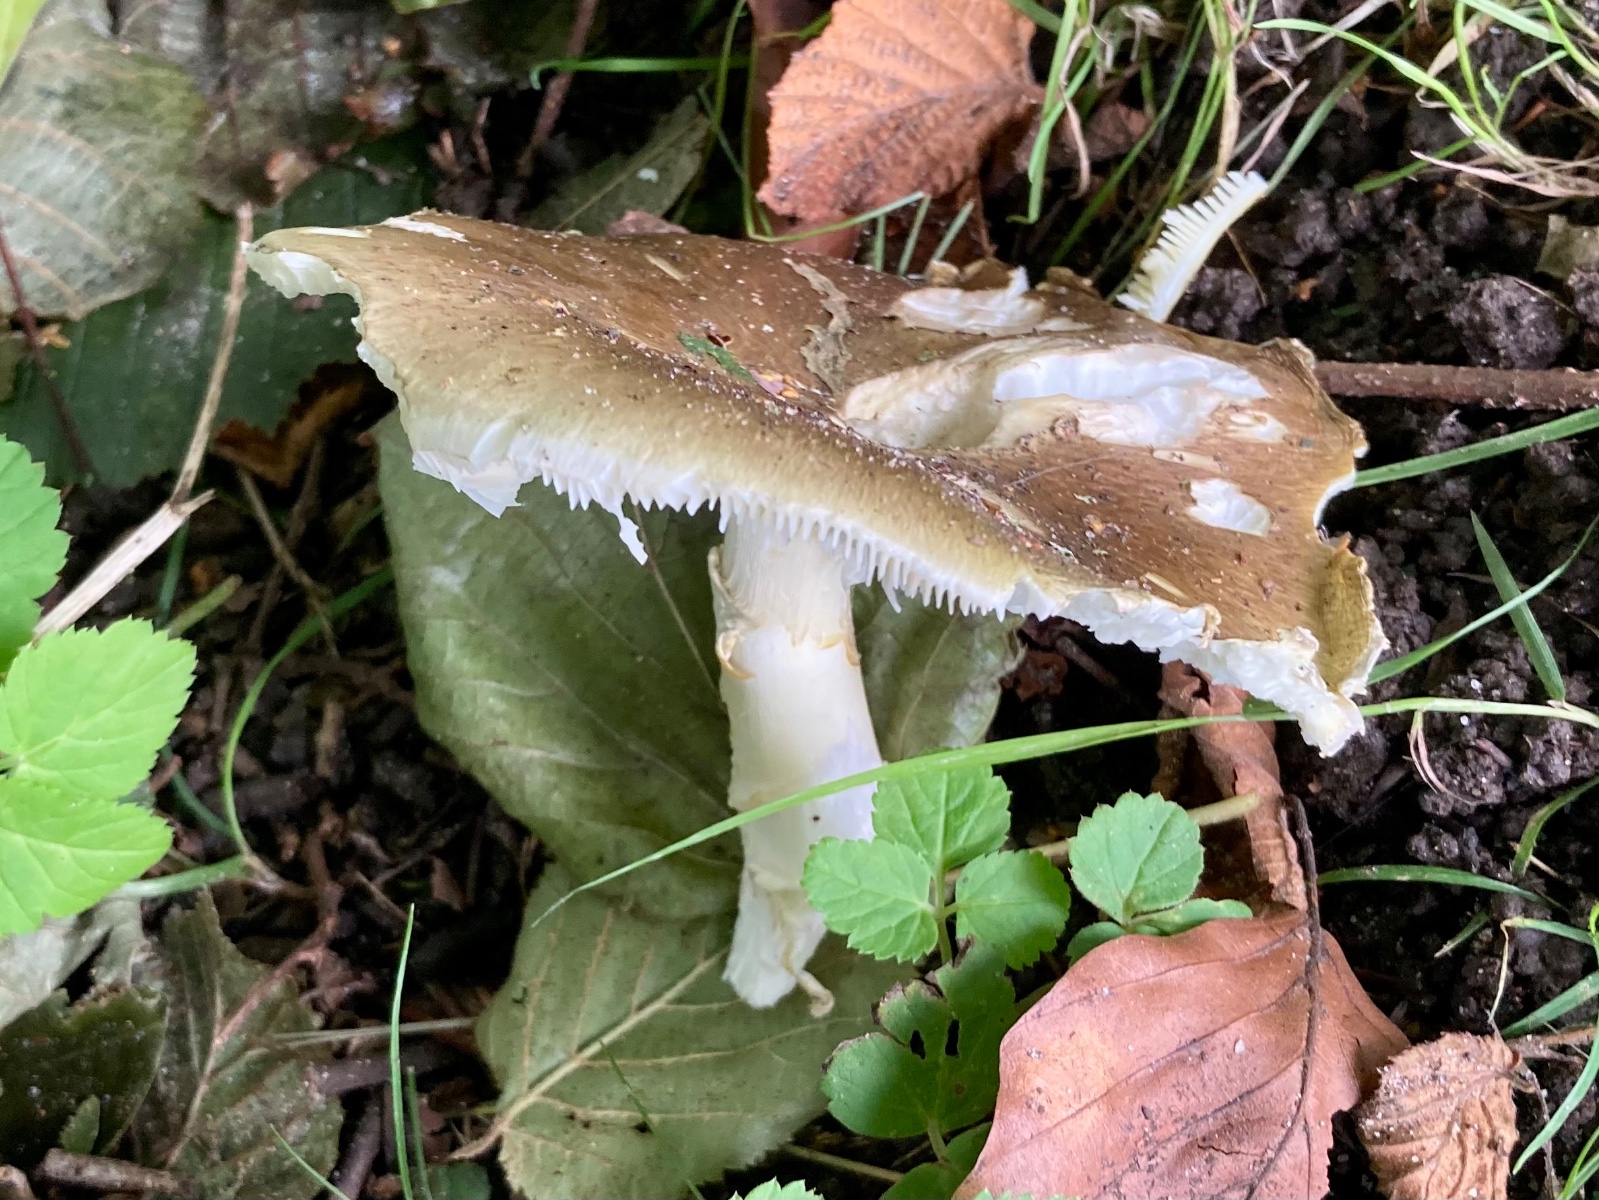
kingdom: Fungi
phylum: Basidiomycota
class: Agaricomycetes
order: Agaricales
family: Amanitaceae
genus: Amanita
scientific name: Amanita phalloides
